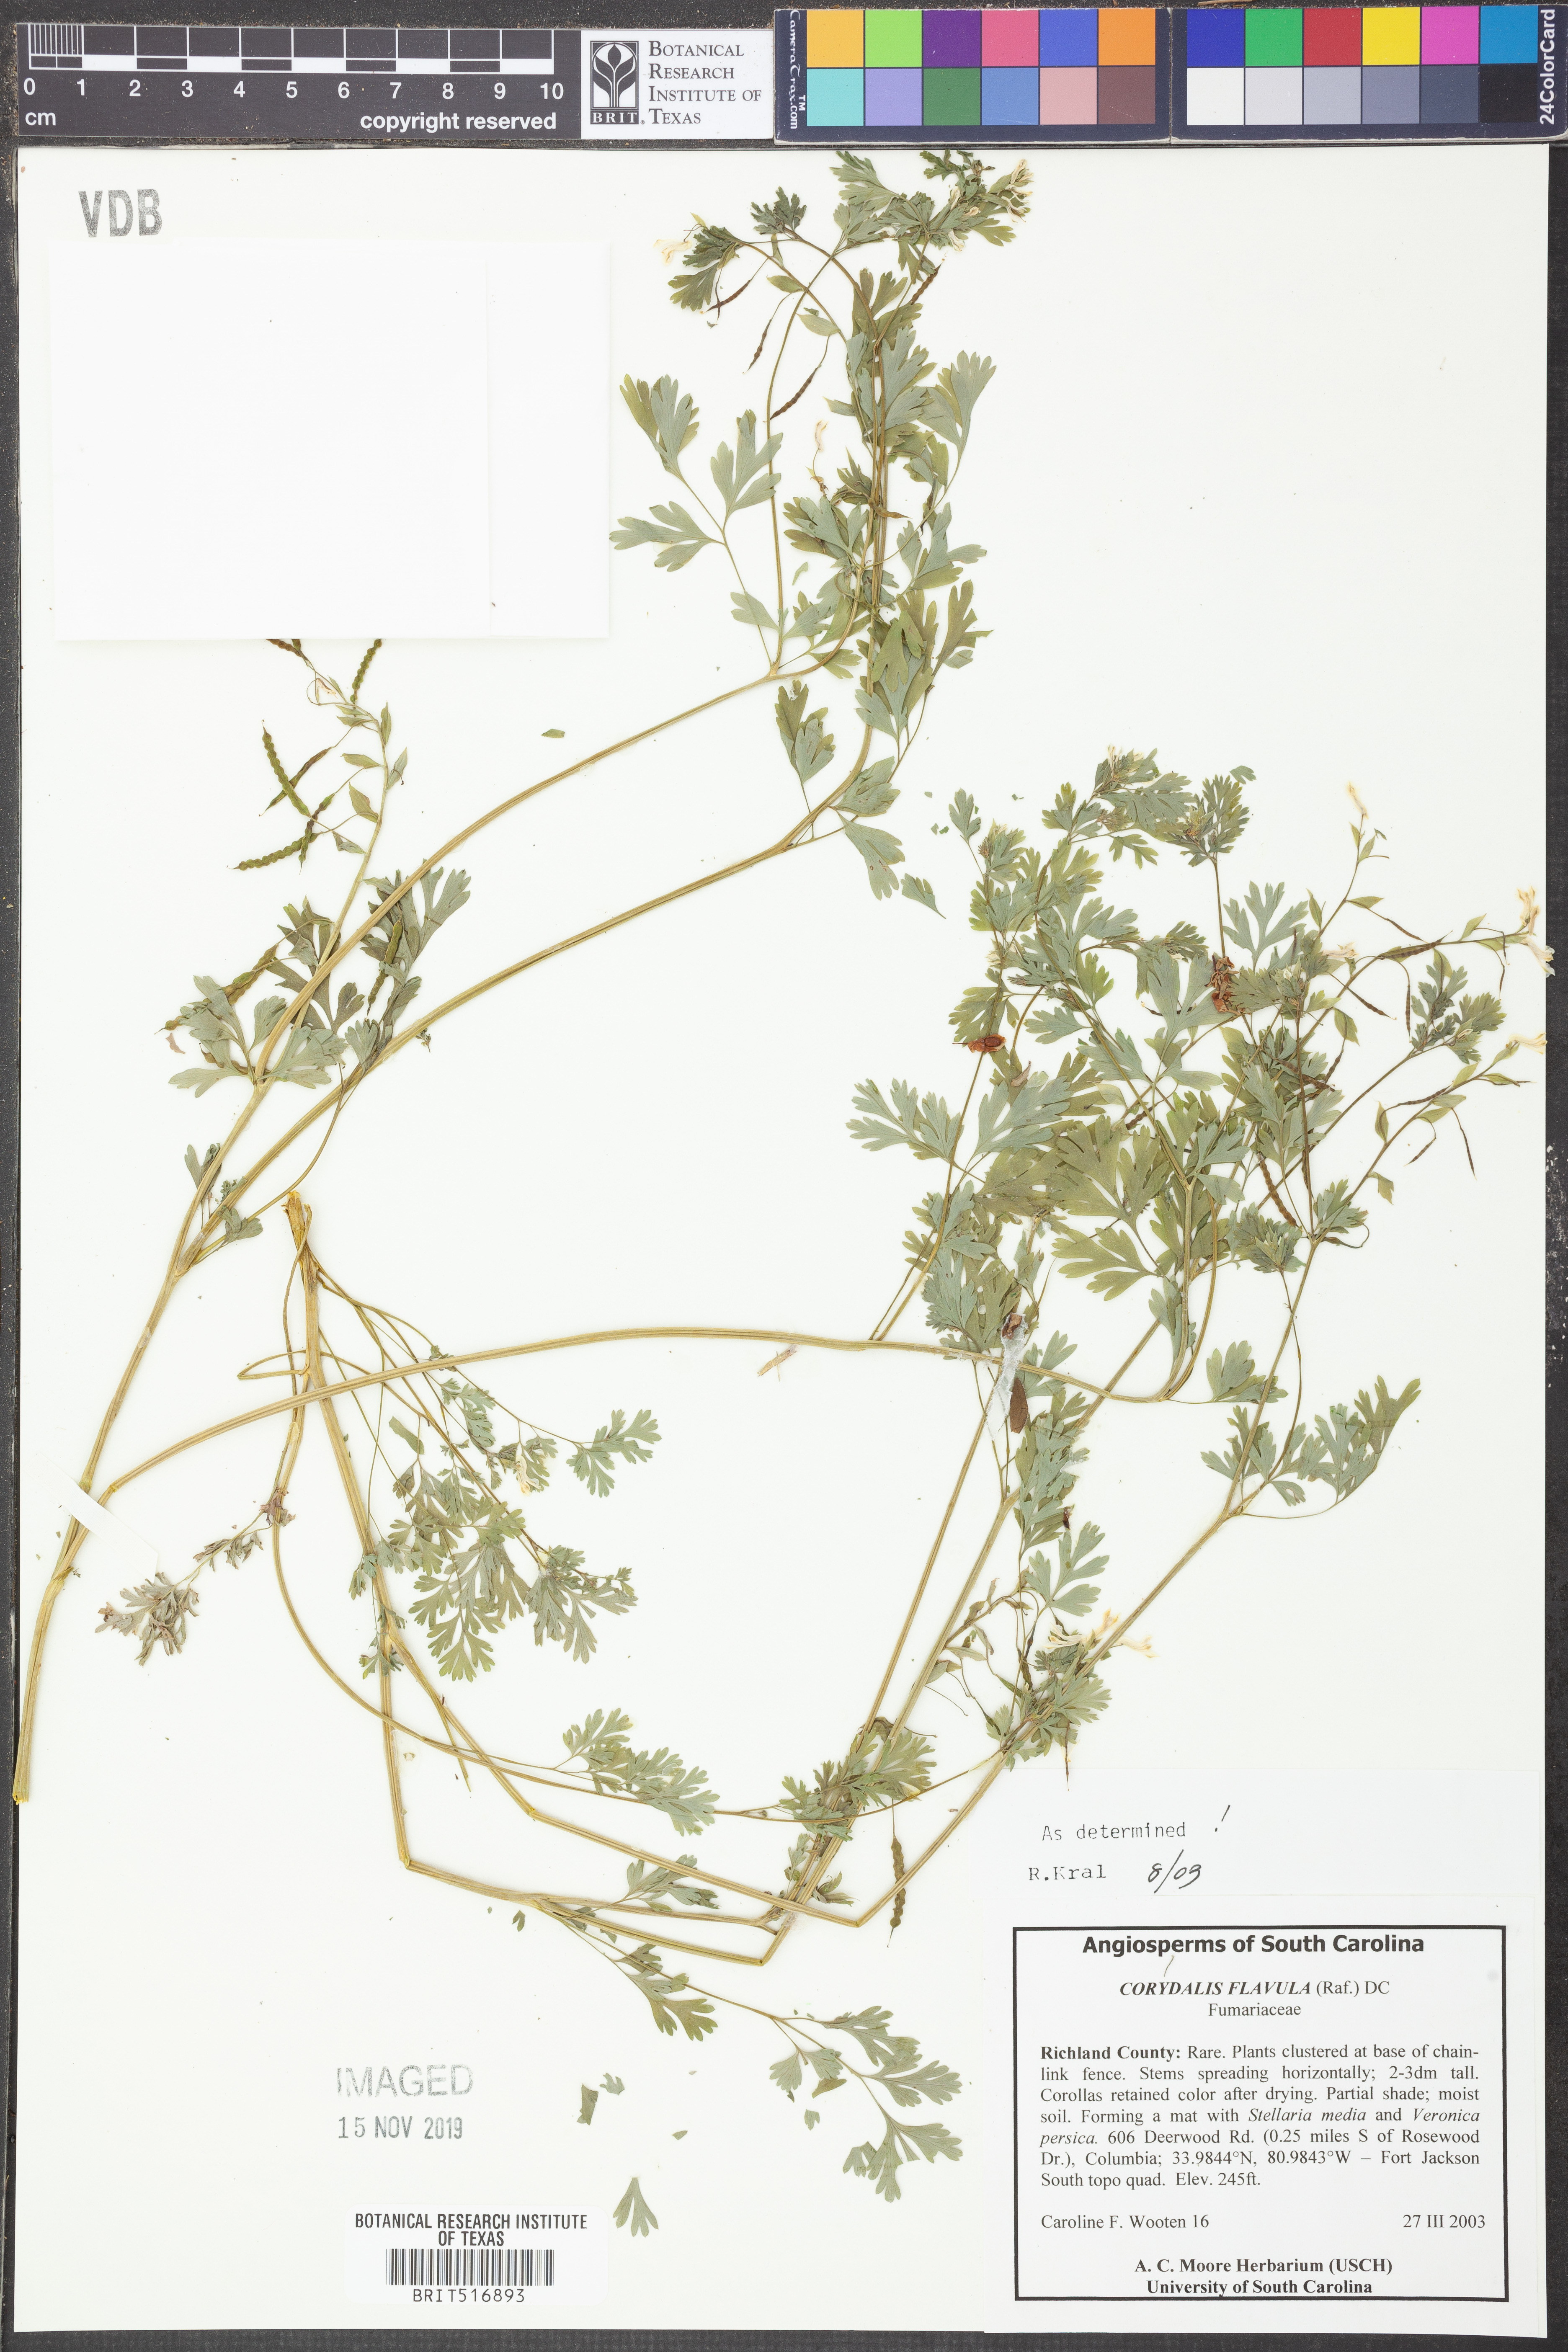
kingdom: Plantae
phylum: Tracheophyta
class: Magnoliopsida
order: Ranunculales
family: Papaveraceae
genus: Corydalis
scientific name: Corydalis flavula
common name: Yellow corydalis
